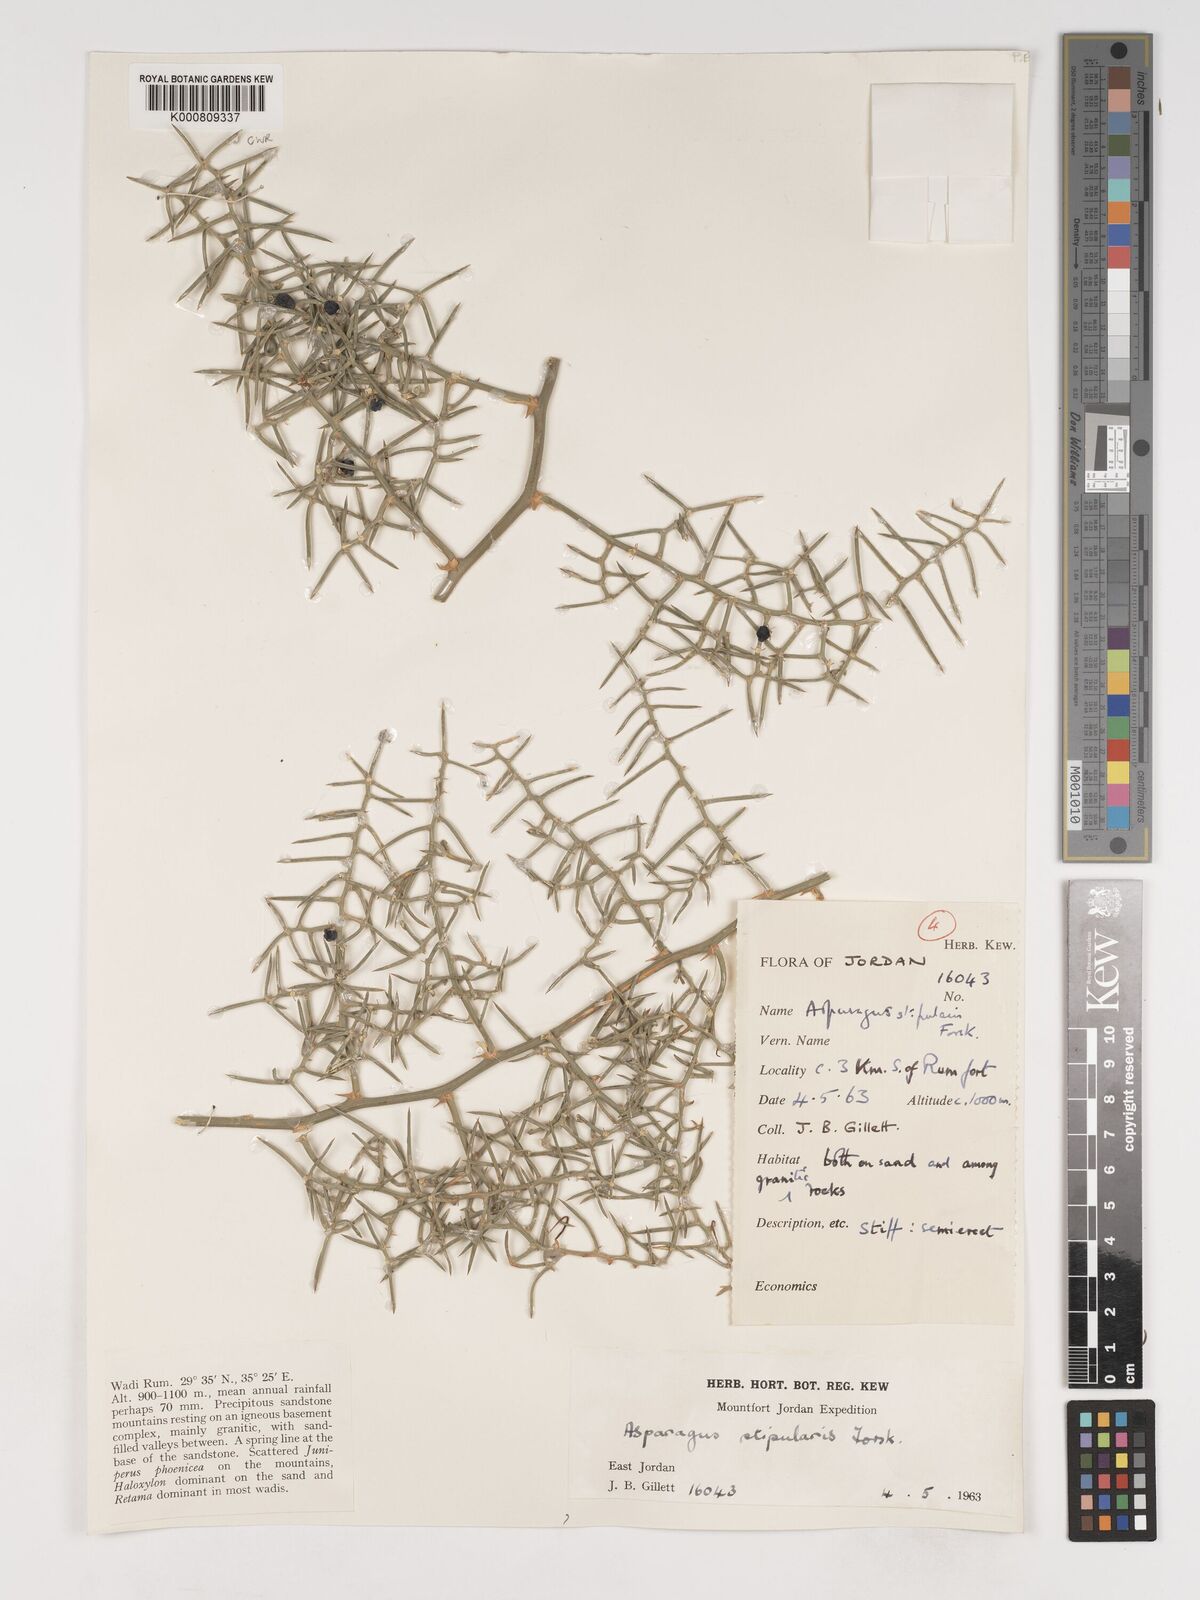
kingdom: Plantae
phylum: Tracheophyta
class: Liliopsida
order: Asparagales
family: Asparagaceae
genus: Asparagus
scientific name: Asparagus horridus
